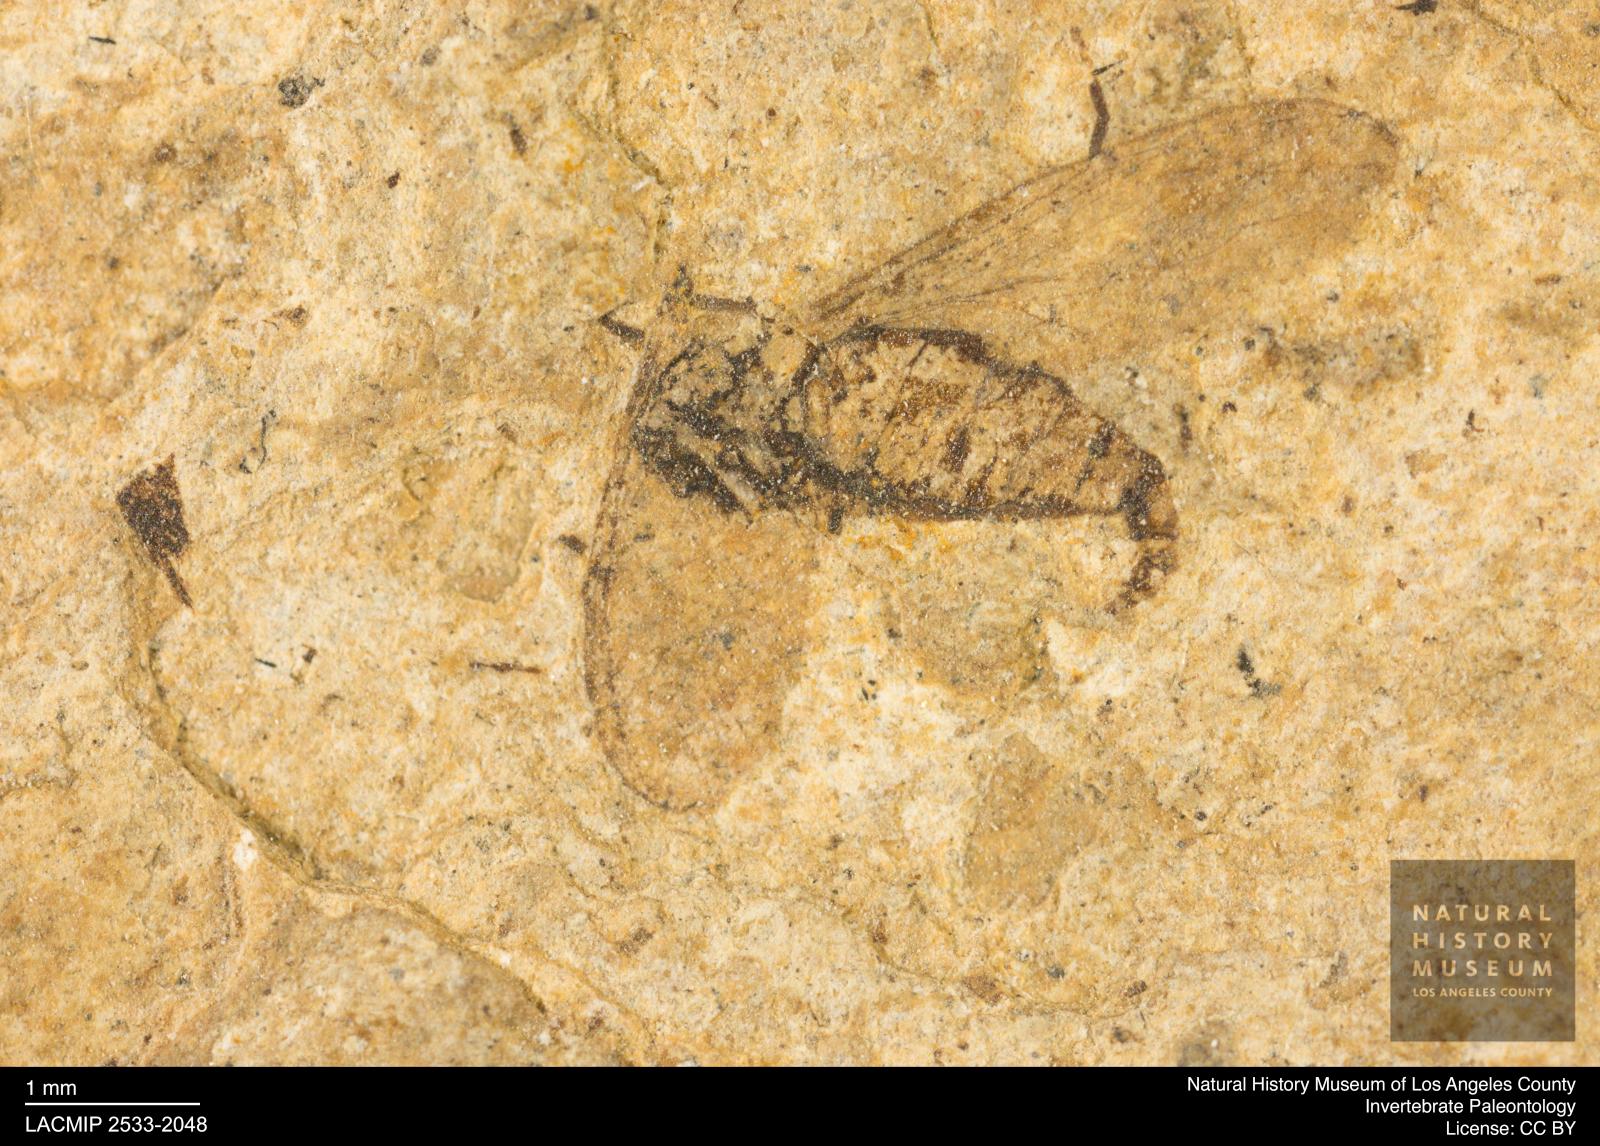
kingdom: Animalia
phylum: Arthropoda
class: Insecta
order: Diptera
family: Sciaridae
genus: Sciara
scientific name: Sciara winnertzii
